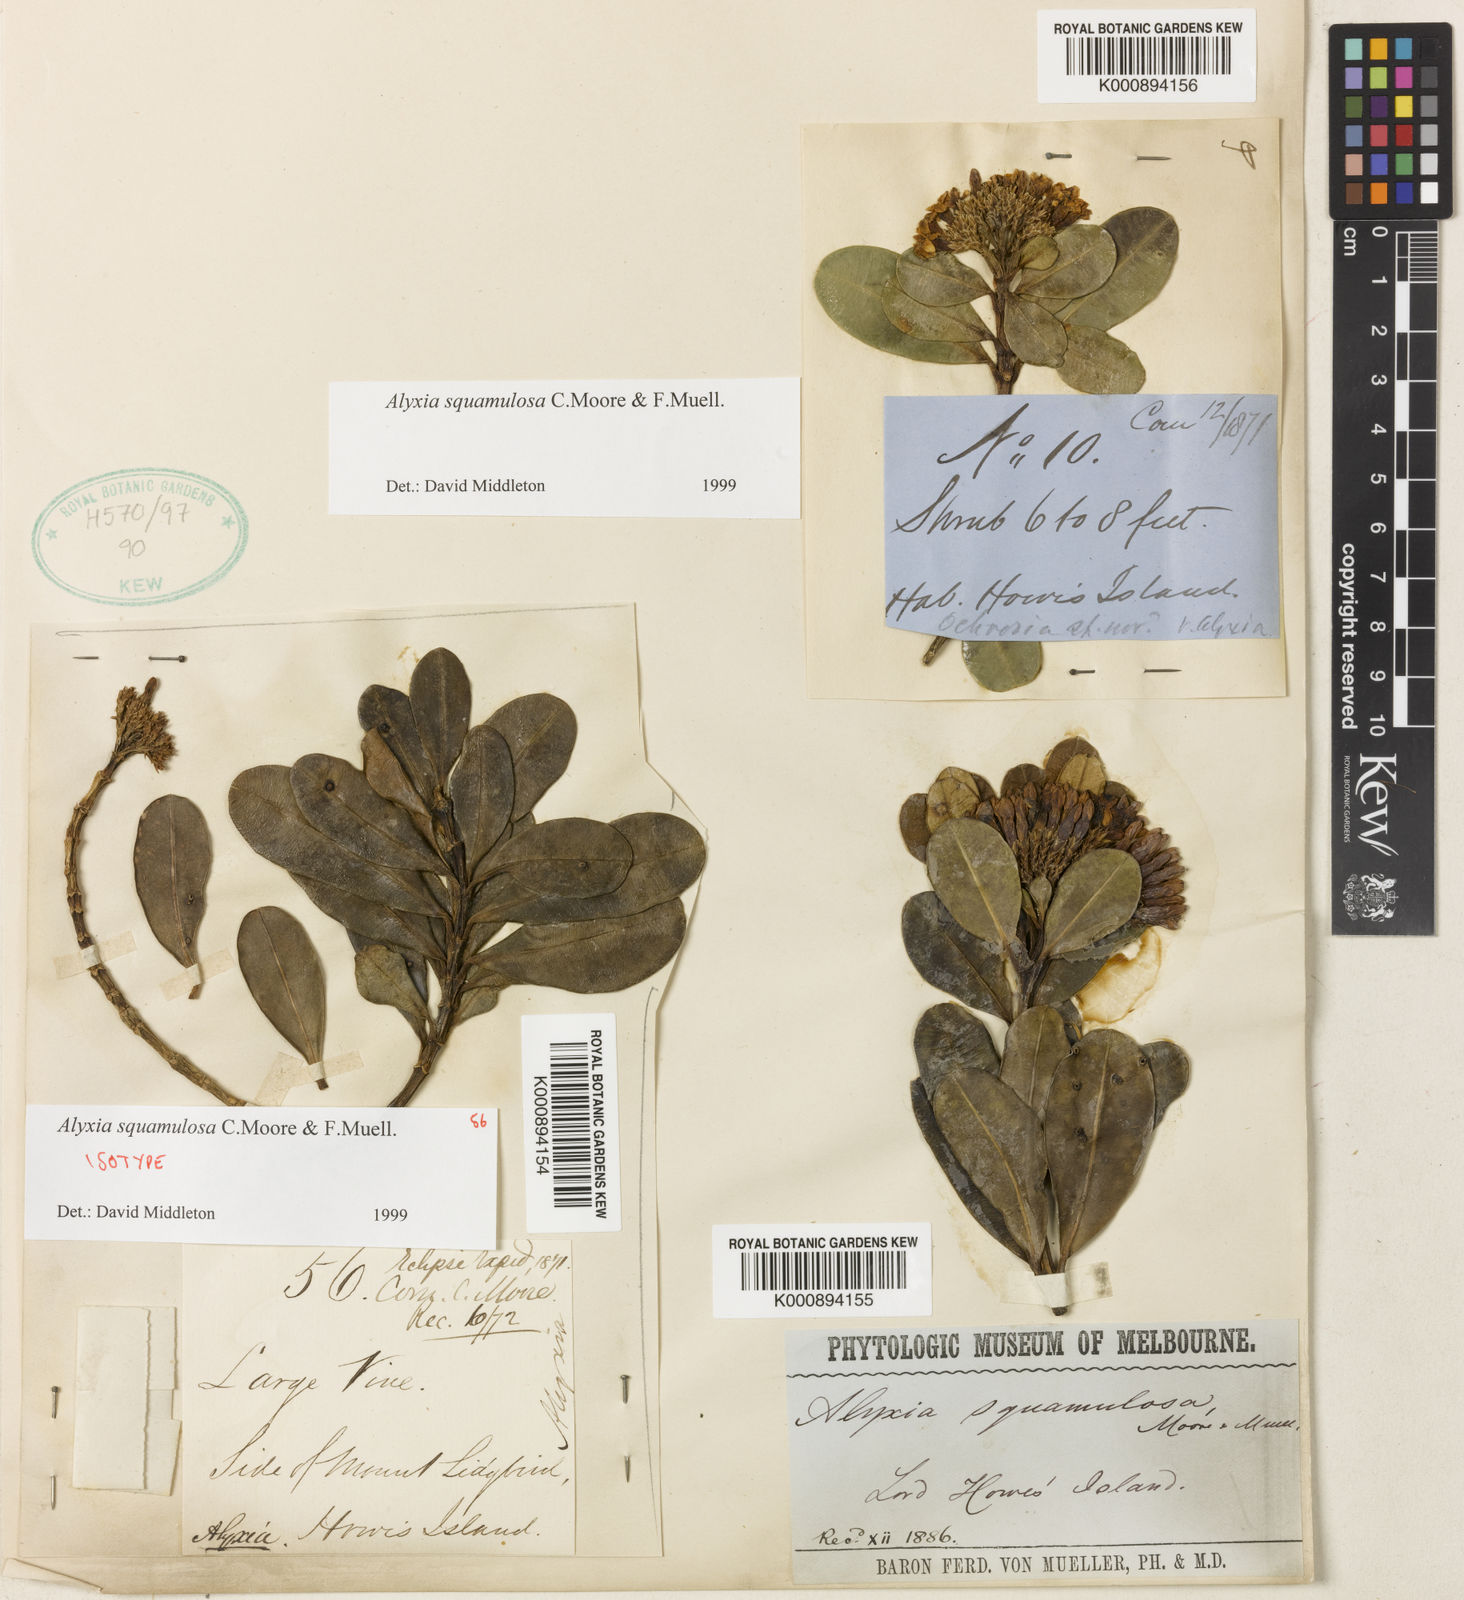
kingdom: Plantae
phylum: Tracheophyta
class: Magnoliopsida
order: Gentianales
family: Apocynaceae
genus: Alyxia
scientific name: Alyxia squamulosa
